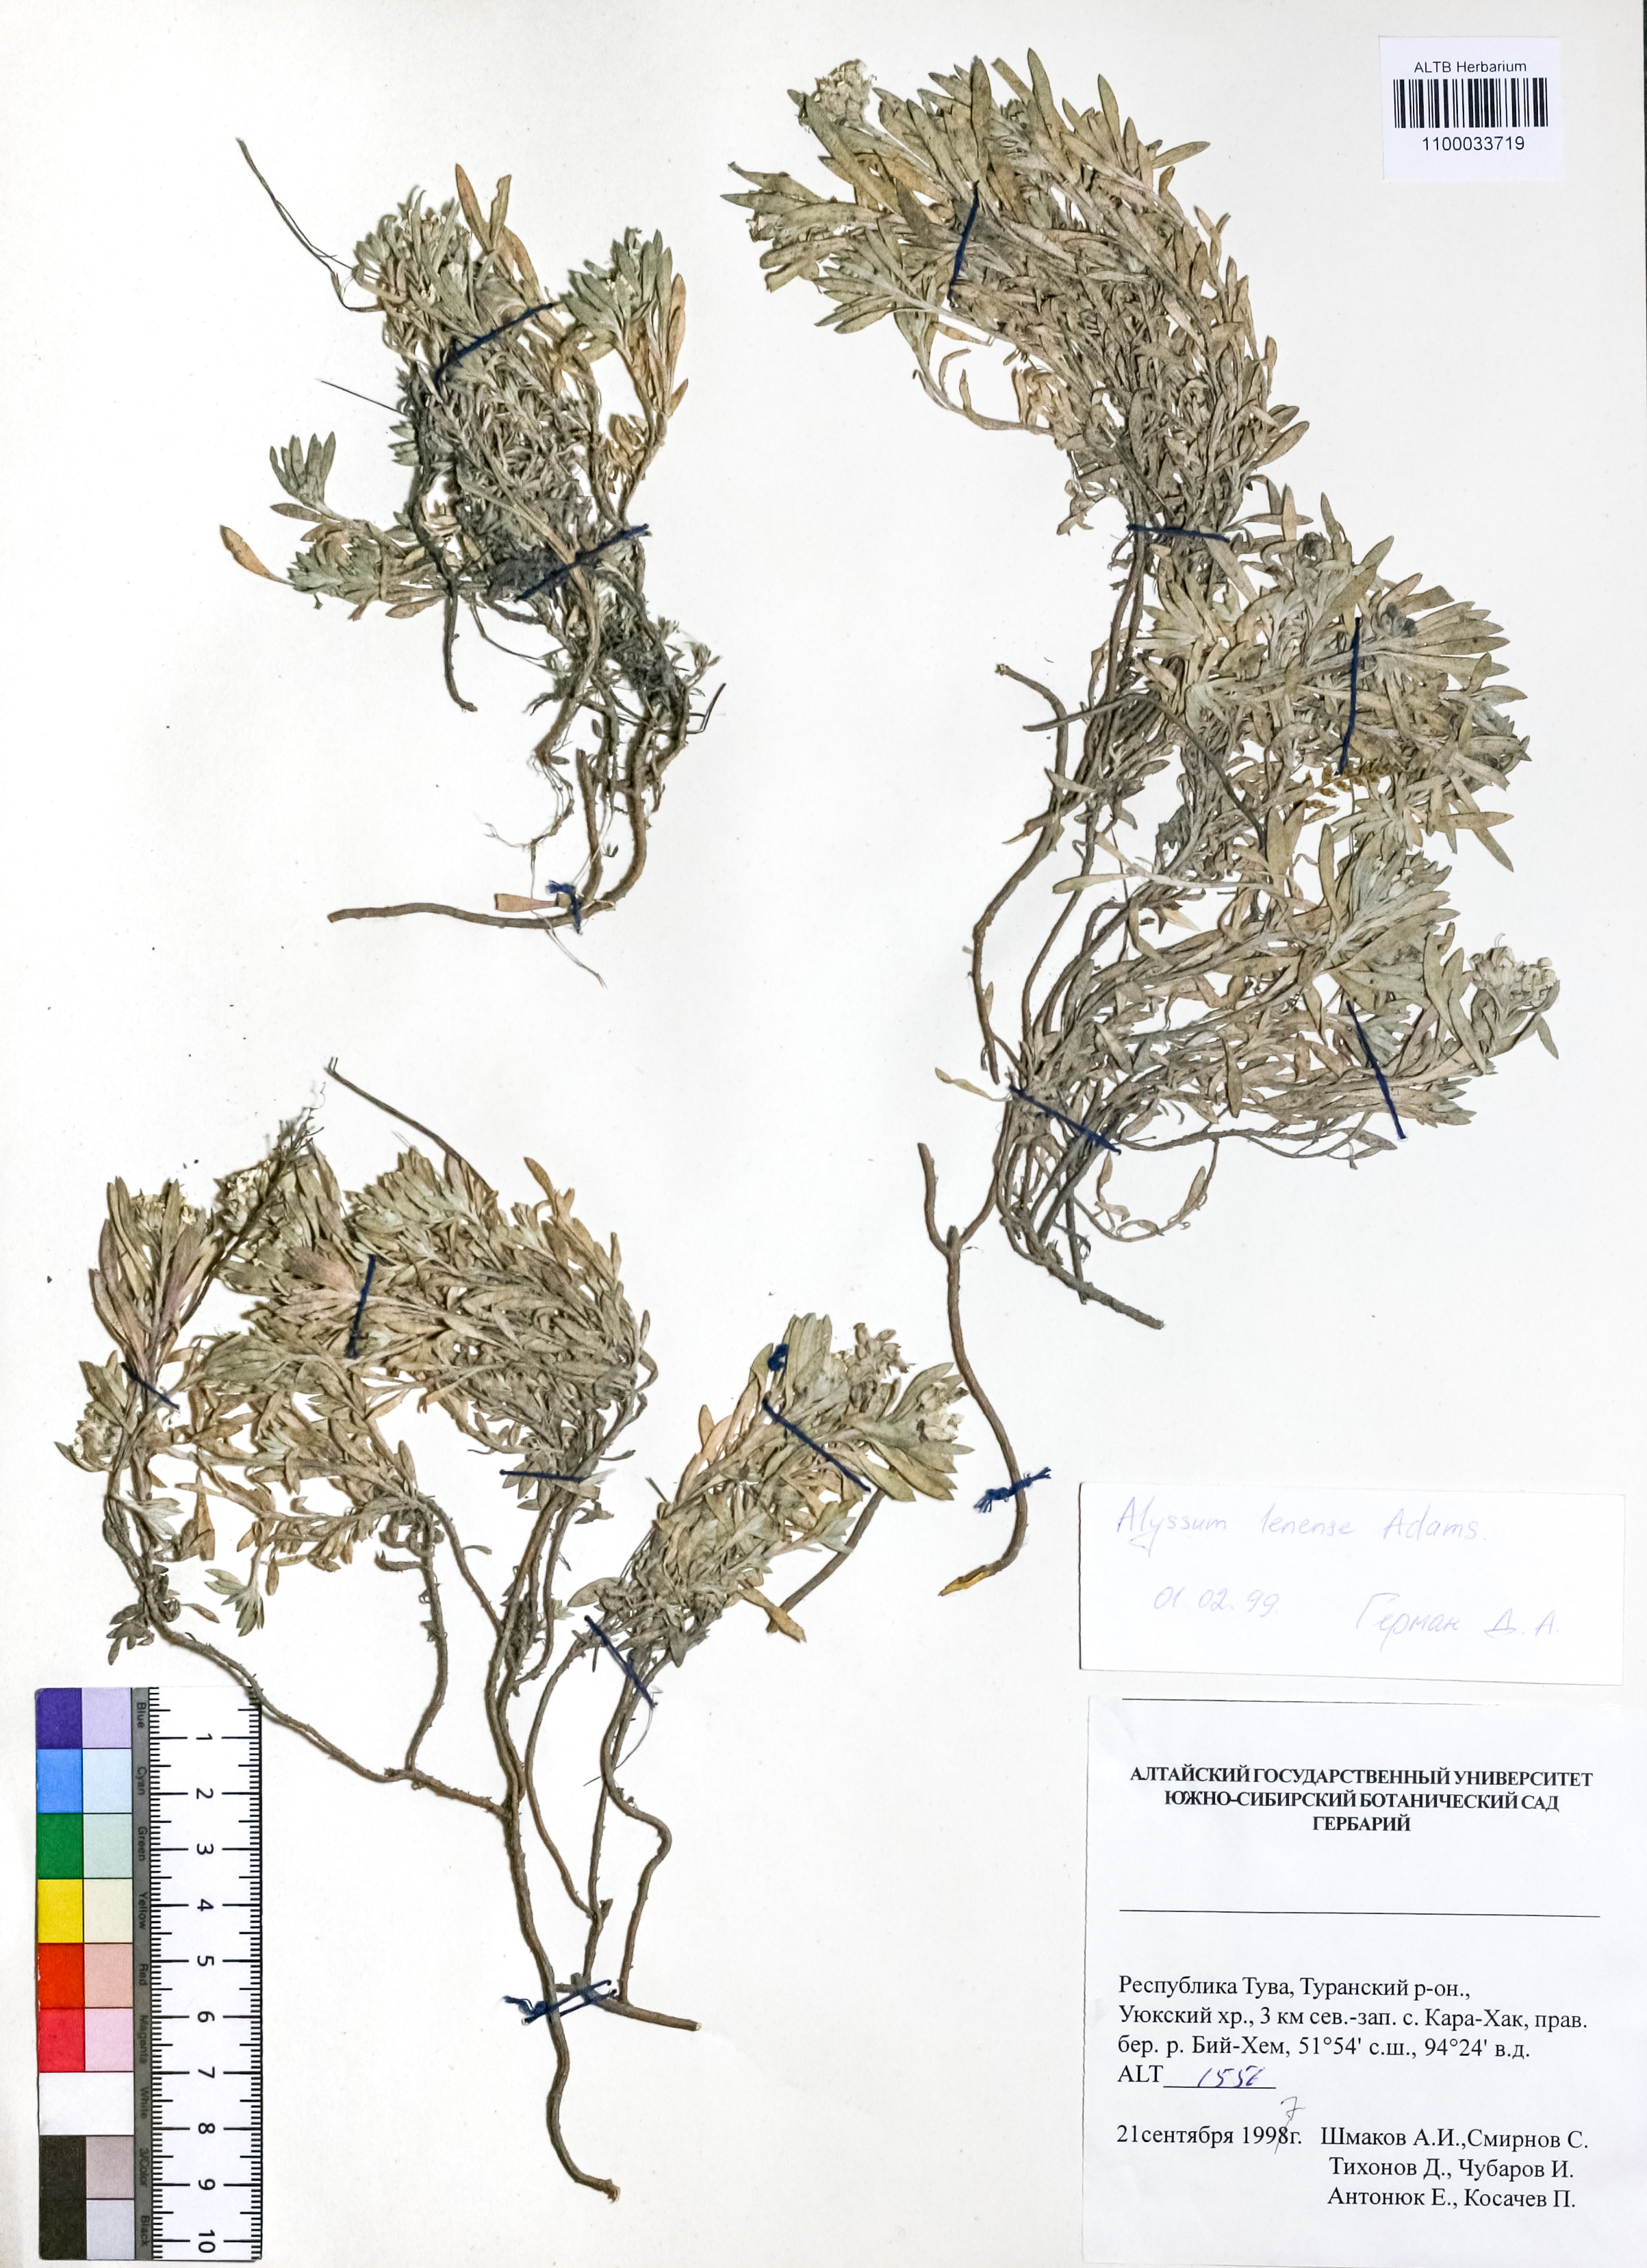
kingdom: Plantae
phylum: Tracheophyta
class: Magnoliopsida
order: Brassicales
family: Brassicaceae
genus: Alyssum
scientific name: Alyssum lenense
